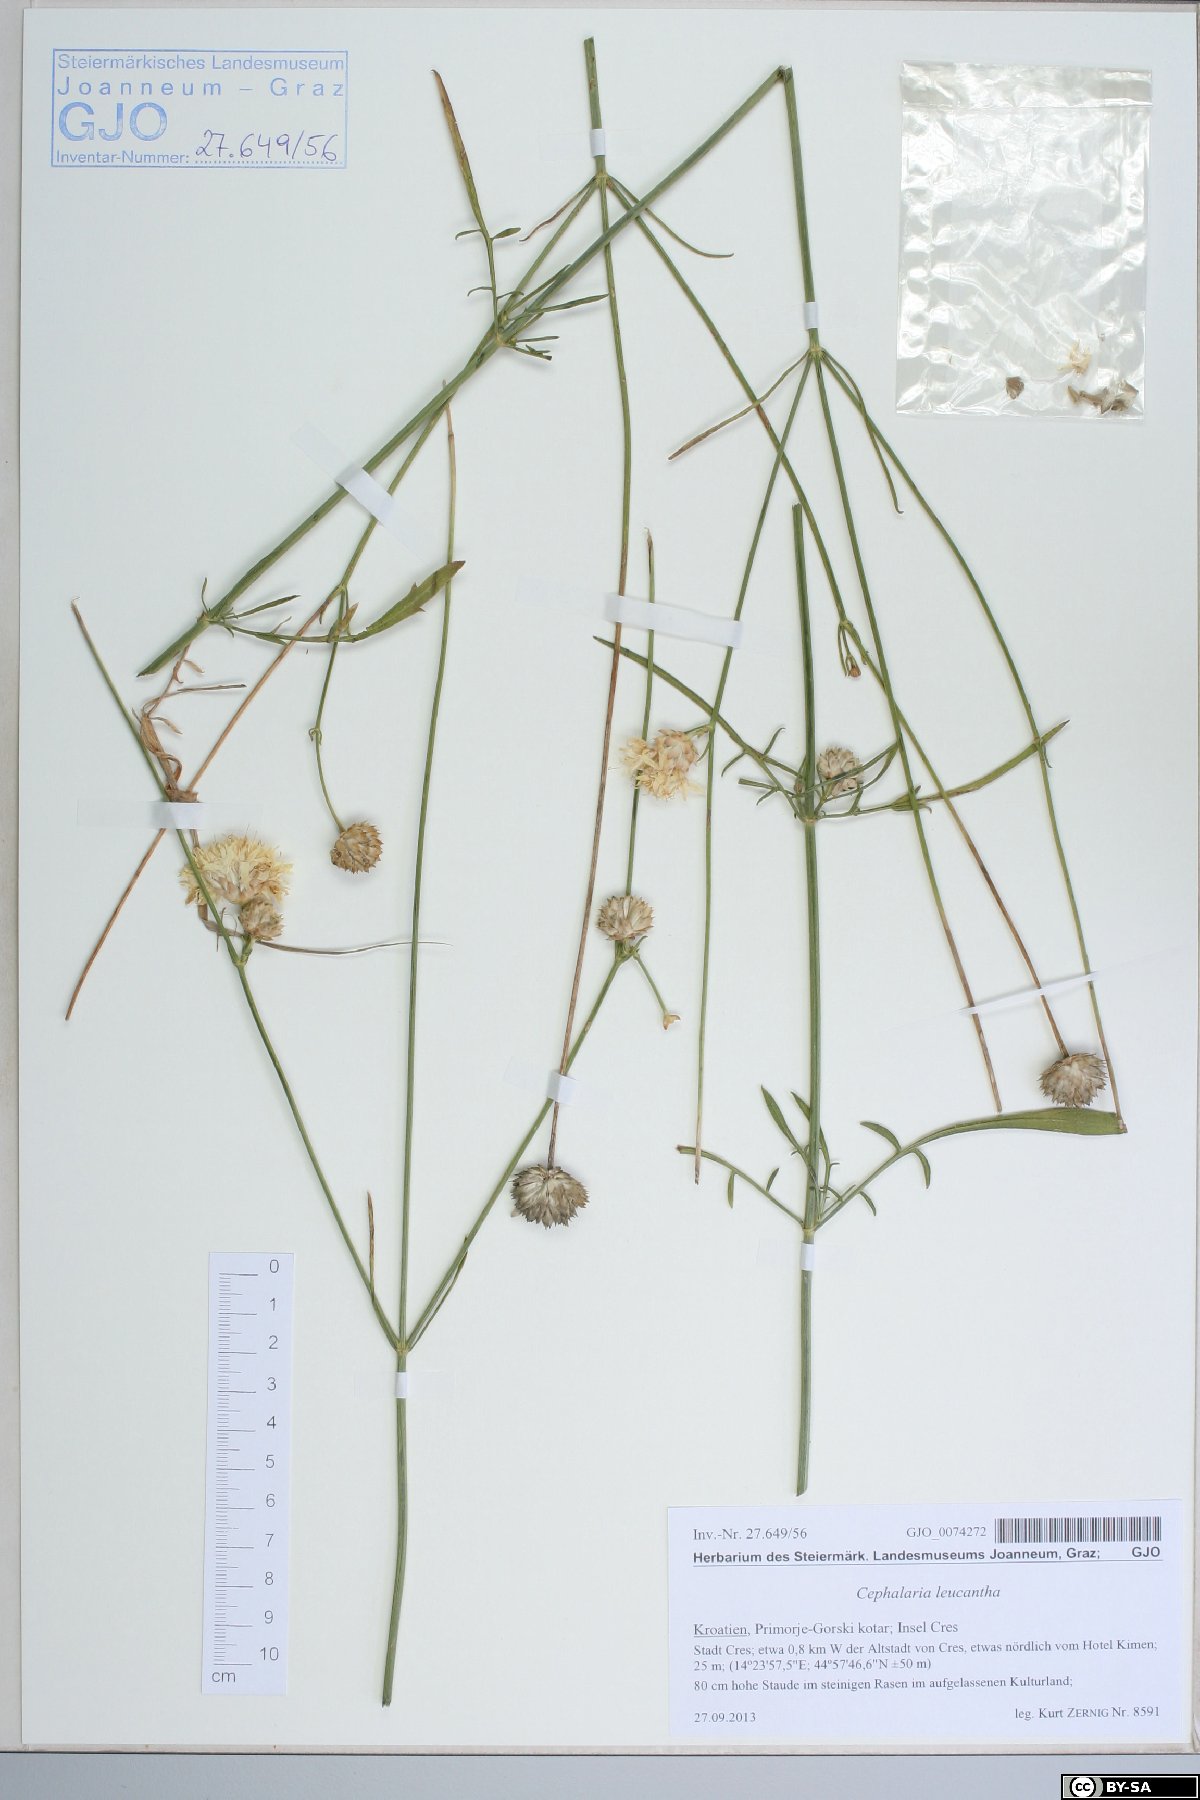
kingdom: Plantae
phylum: Tracheophyta
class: Magnoliopsida
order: Dipsacales
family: Dipsacaceae
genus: Cephalaria
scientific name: Cephalaria leucantha
